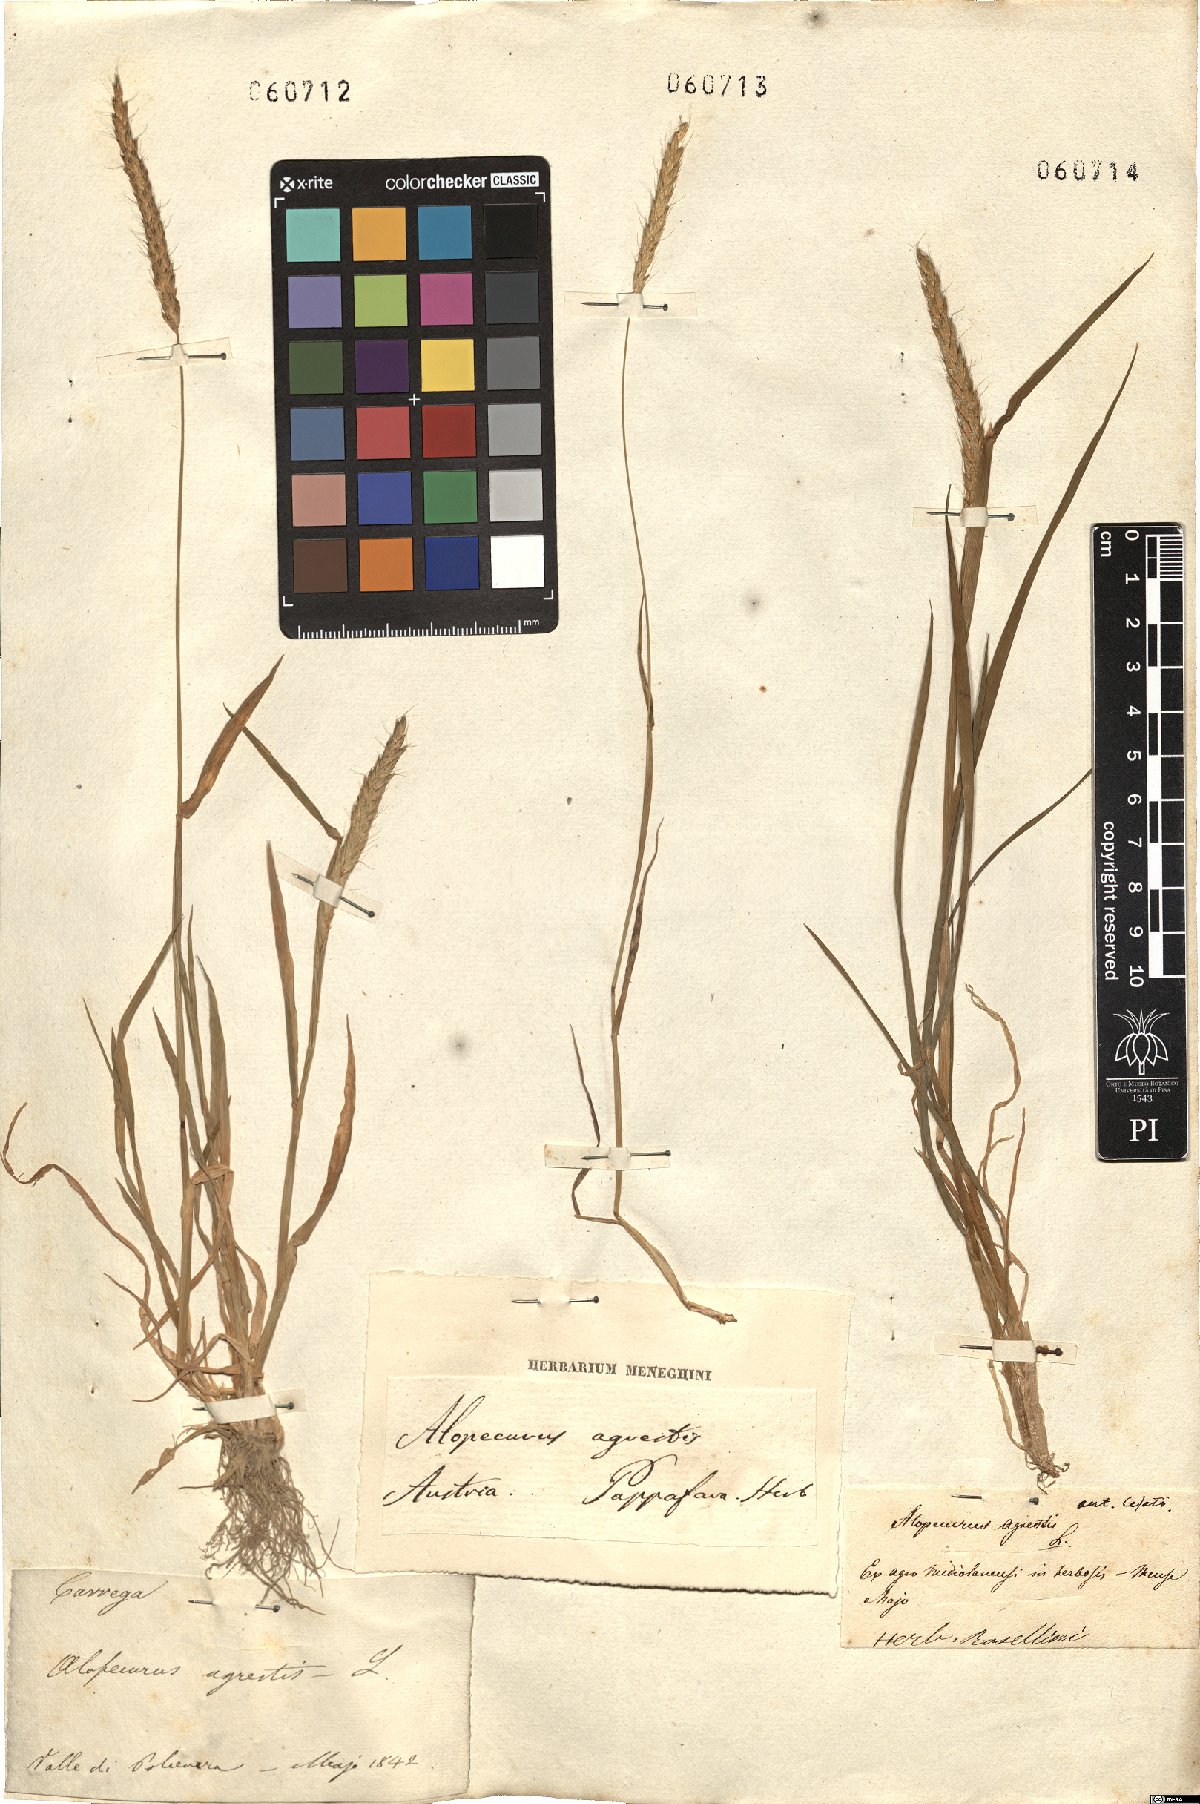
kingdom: Plantae
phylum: Tracheophyta
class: Liliopsida
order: Poales
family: Poaceae
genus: Alopecurus
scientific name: Alopecurus myosuroides
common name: Black-grass
